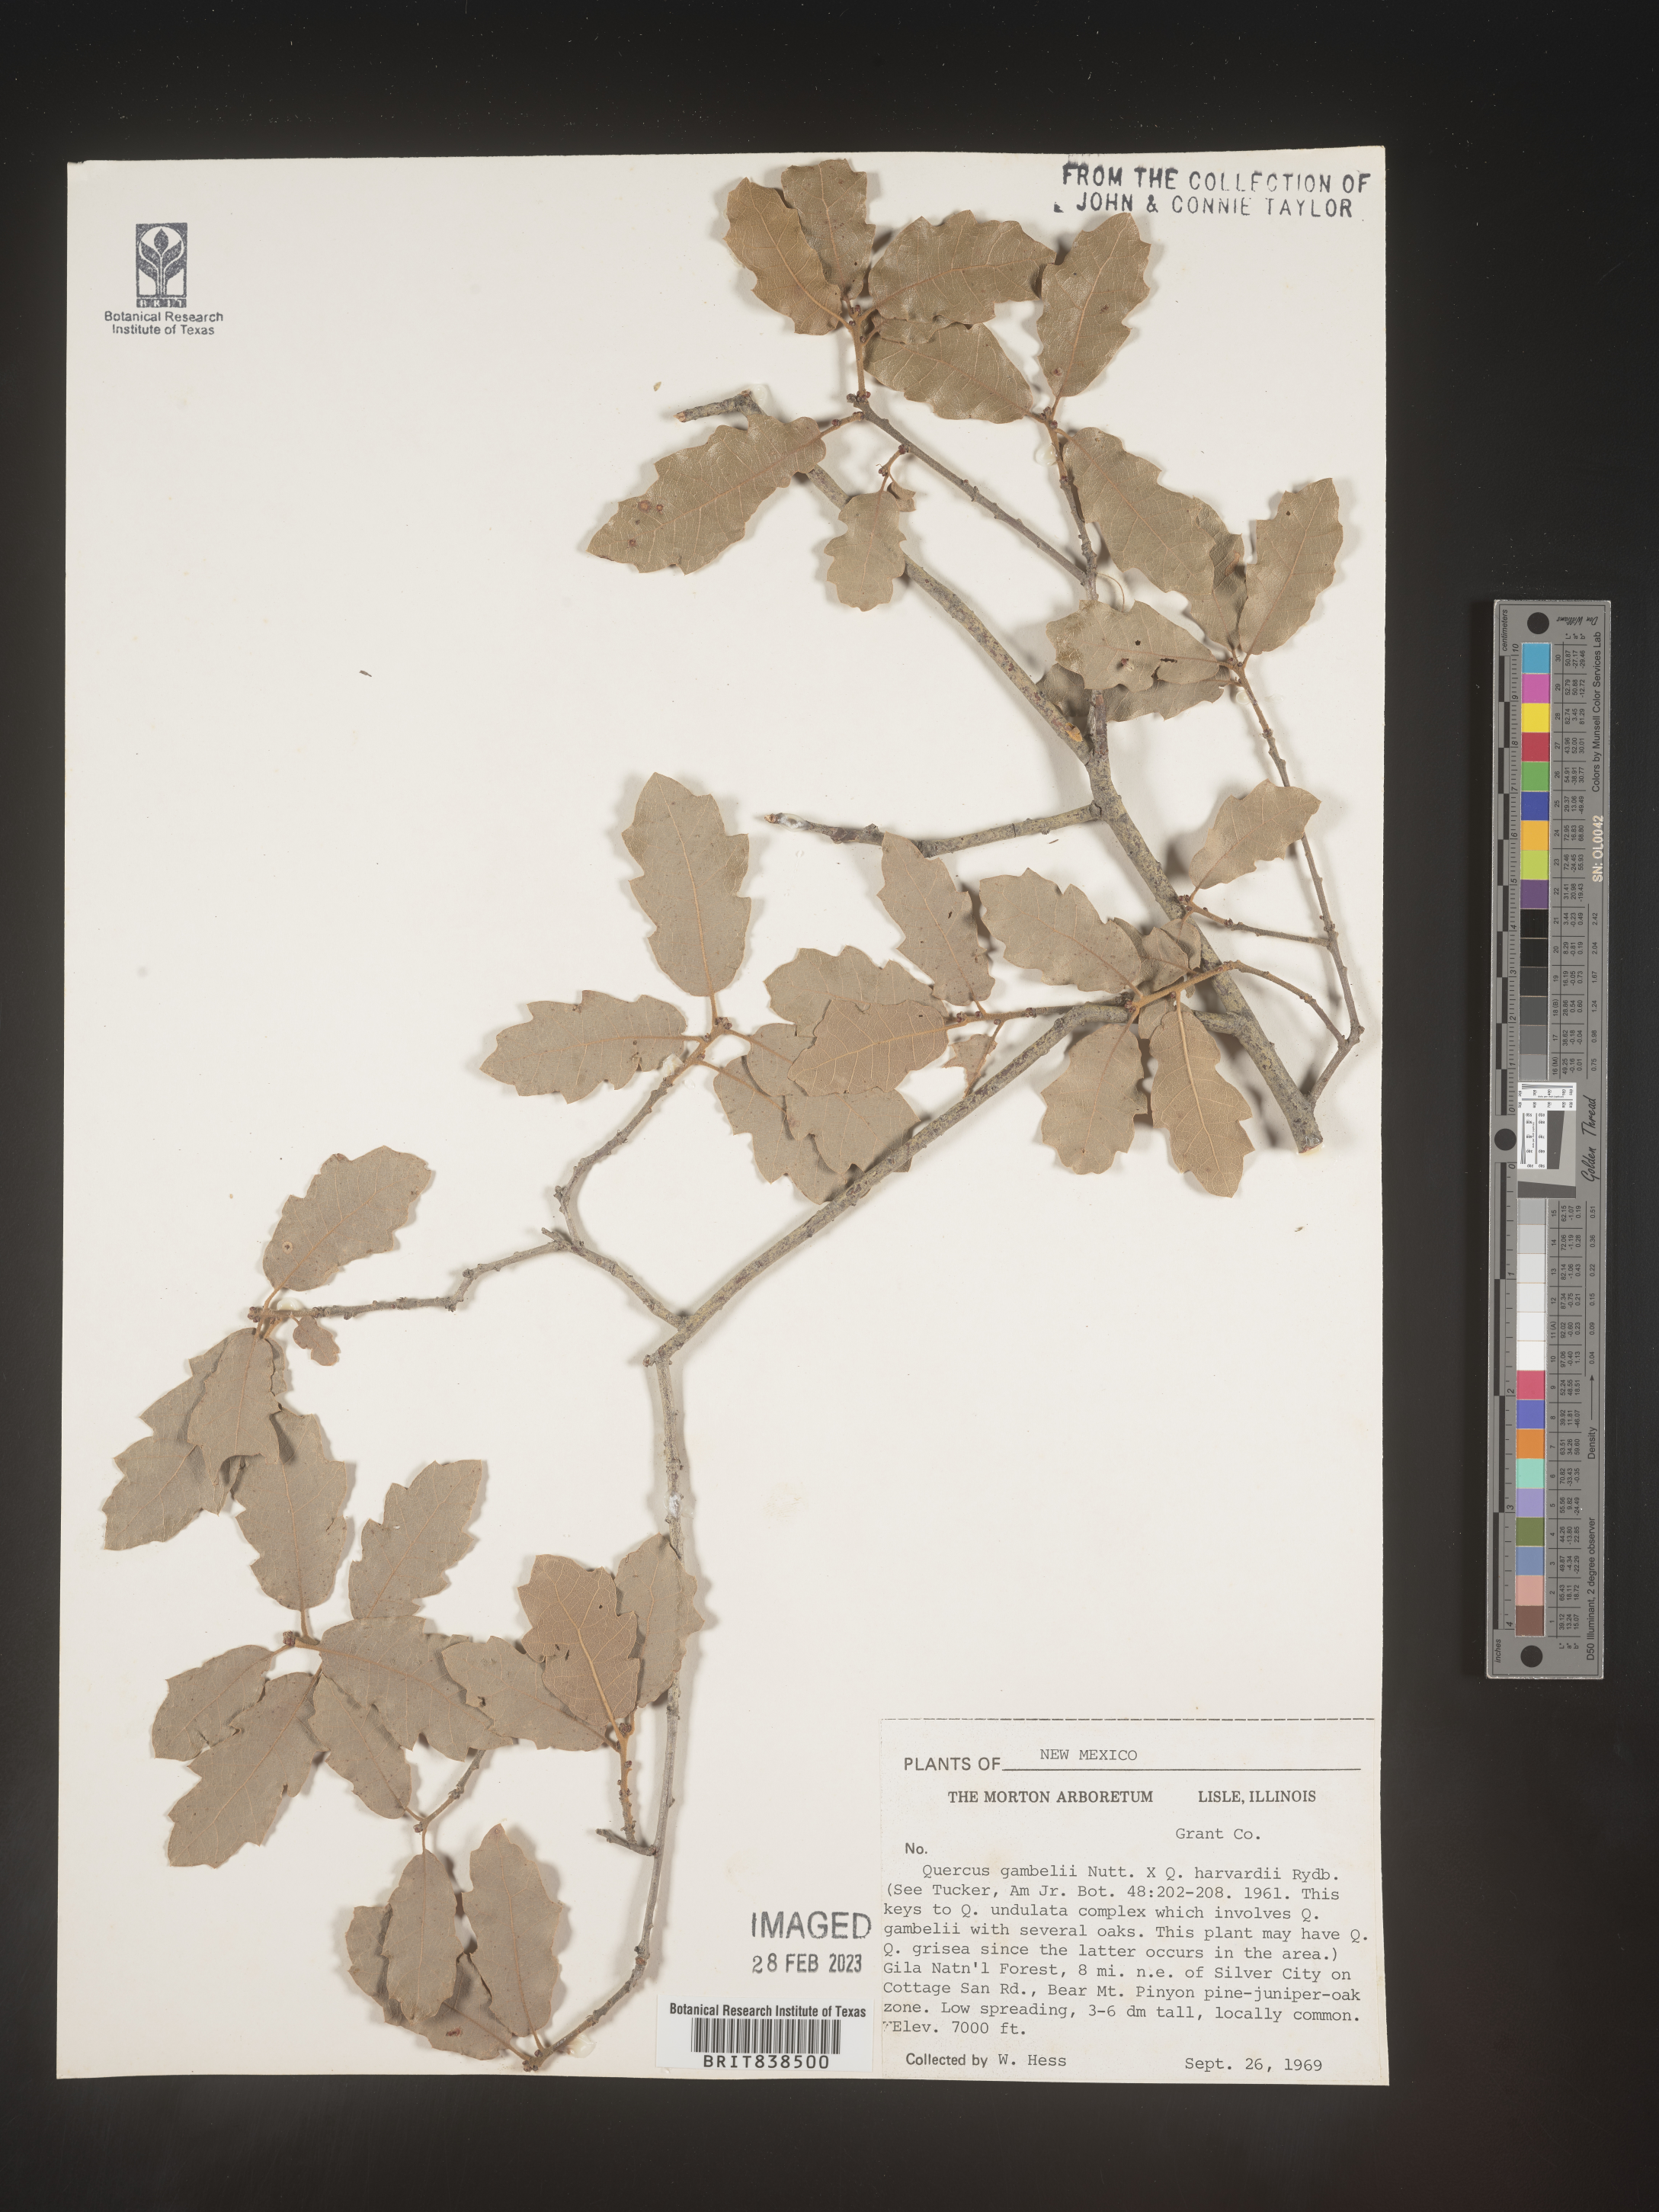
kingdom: Plantae
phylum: Tracheophyta
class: Magnoliopsida
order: Fagales
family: Fagaceae
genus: Quercus
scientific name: Quercus gambelii
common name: Gambel oak
